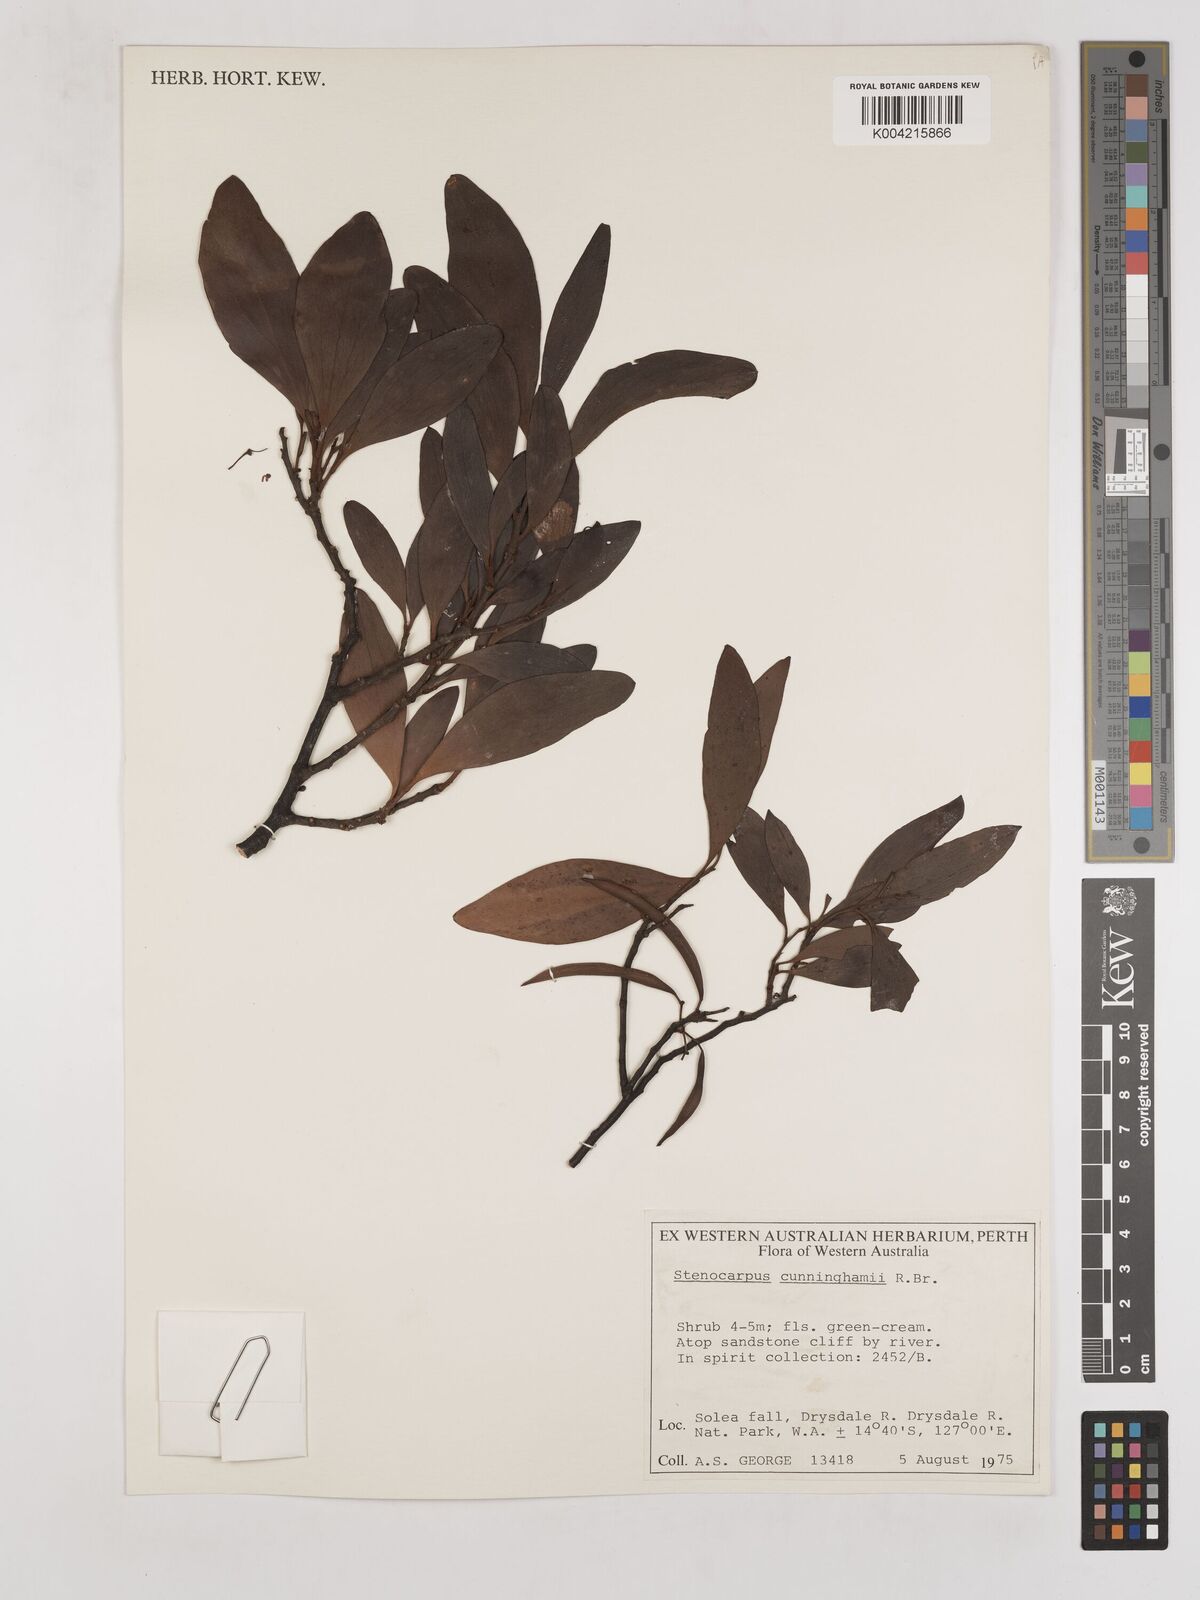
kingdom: Plantae
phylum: Tracheophyta
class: Magnoliopsida
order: Proteales
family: Proteaceae
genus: Stenocarpus
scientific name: Stenocarpus cunninghamii
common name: Little wheelbush
